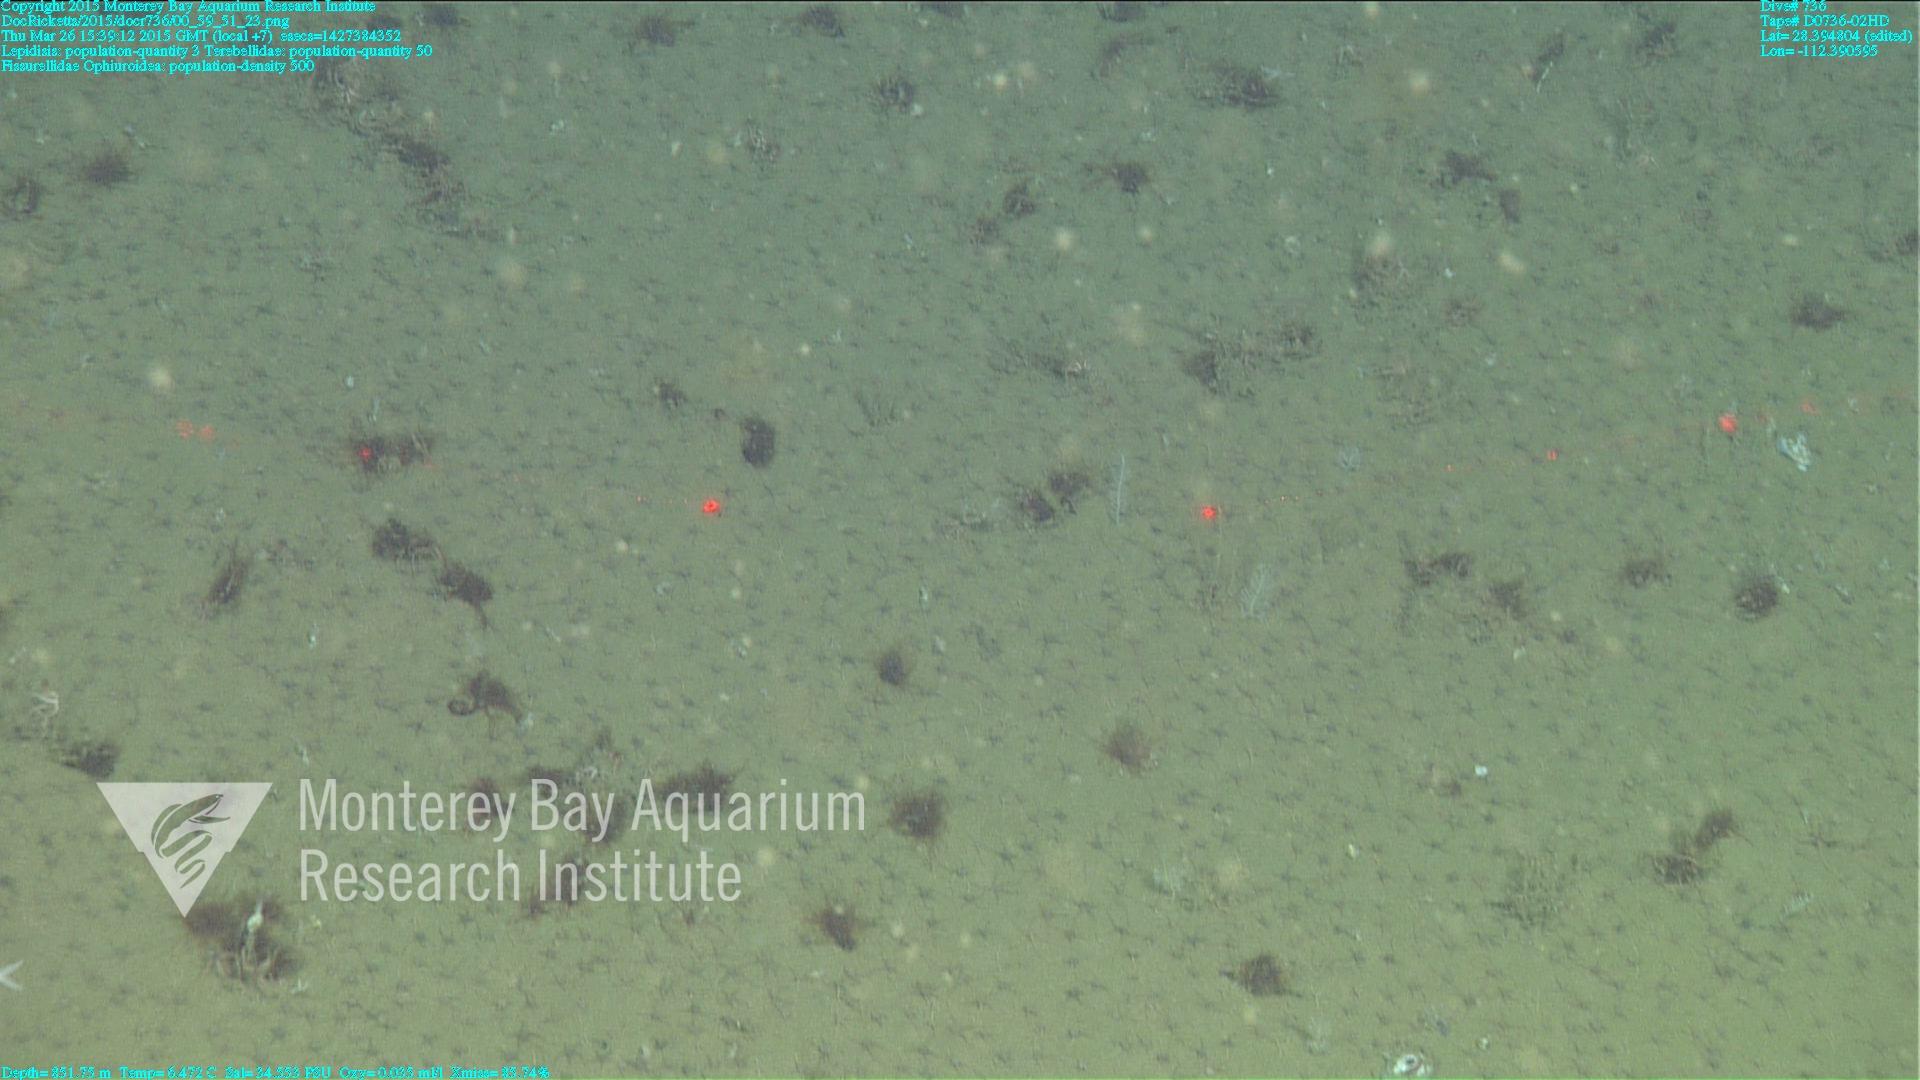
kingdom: Animalia
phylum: Cnidaria
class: Anthozoa
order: Scleralcyonacea
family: Keratoisididae
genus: Lepidisis
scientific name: Lepidisis
